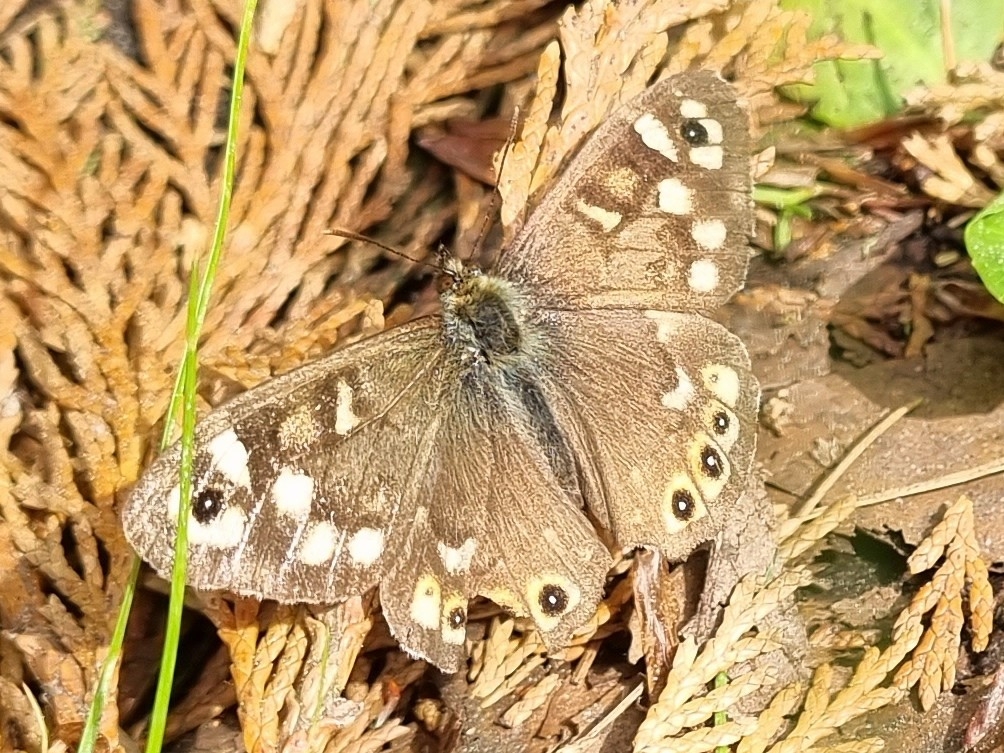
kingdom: Animalia
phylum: Arthropoda
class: Insecta
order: Lepidoptera
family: Nymphalidae
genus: Pararge
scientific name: Pararge aegeria
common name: Skovrandøje
